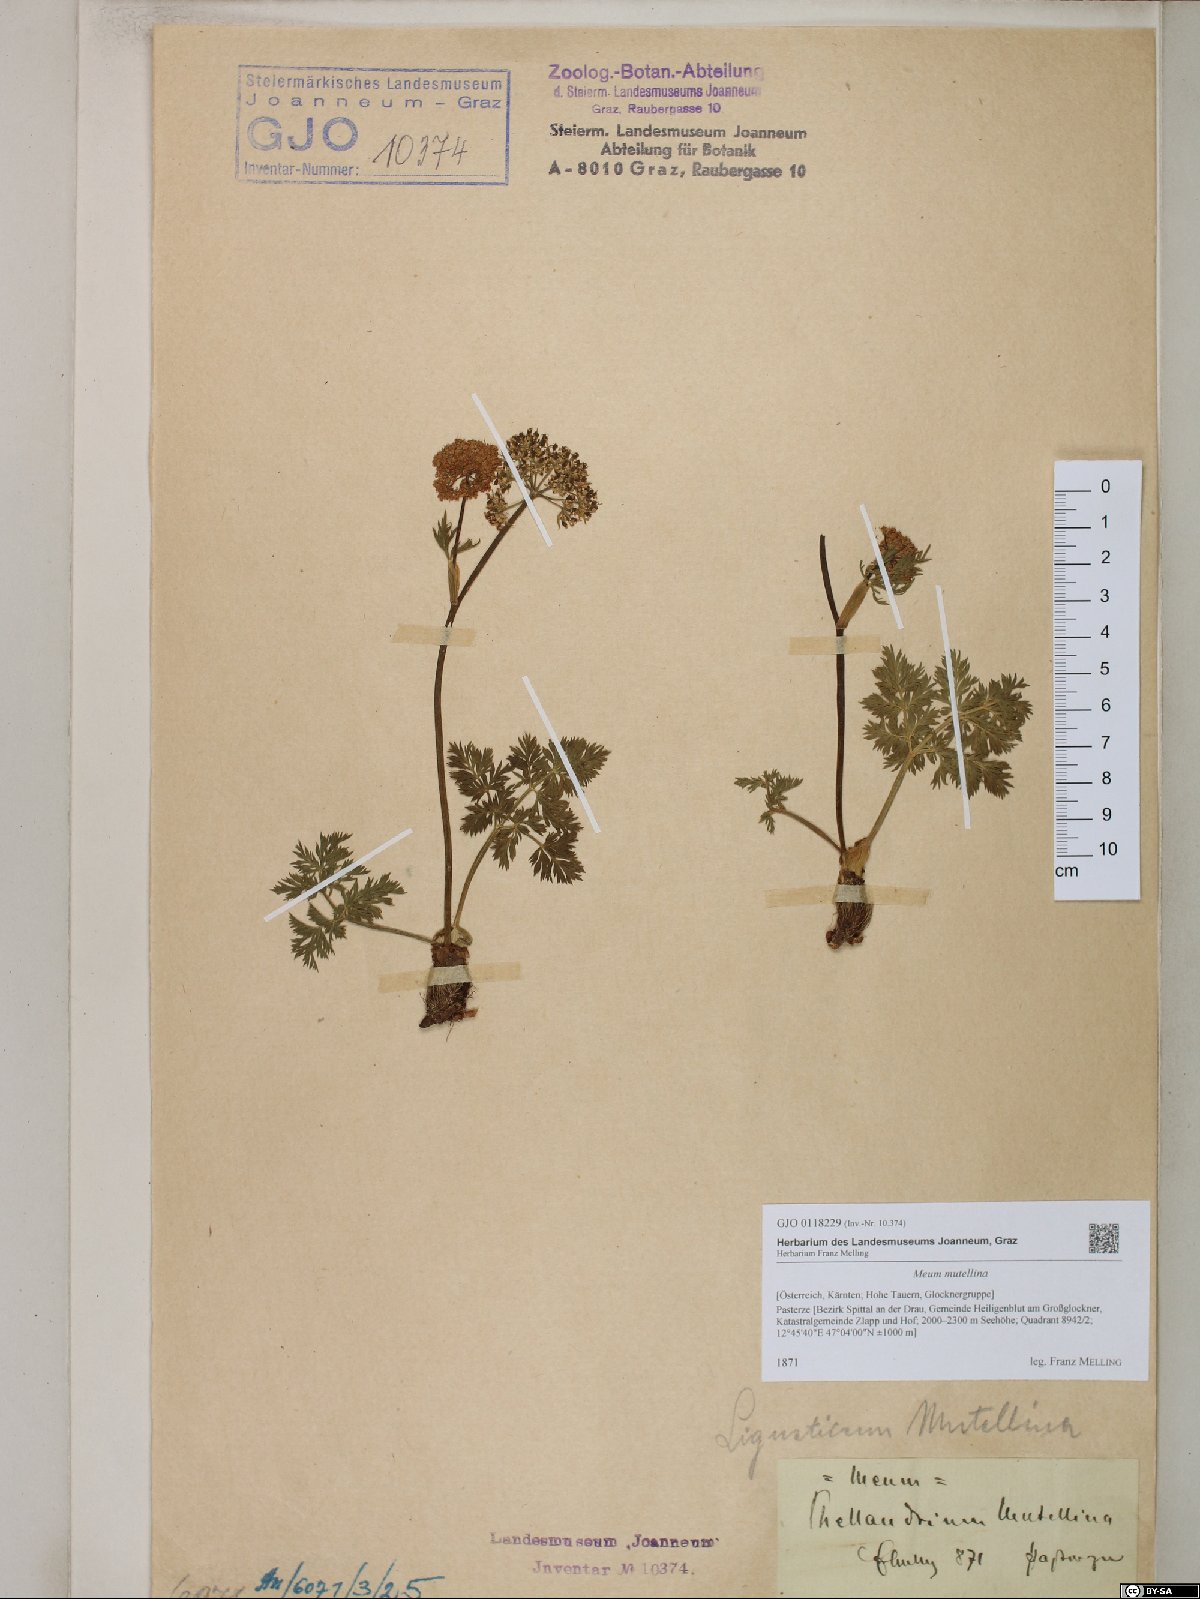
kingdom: Plantae
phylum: Tracheophyta
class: Magnoliopsida
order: Apiales
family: Apiaceae
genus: Mutellina
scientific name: Mutellina adonidifolia
